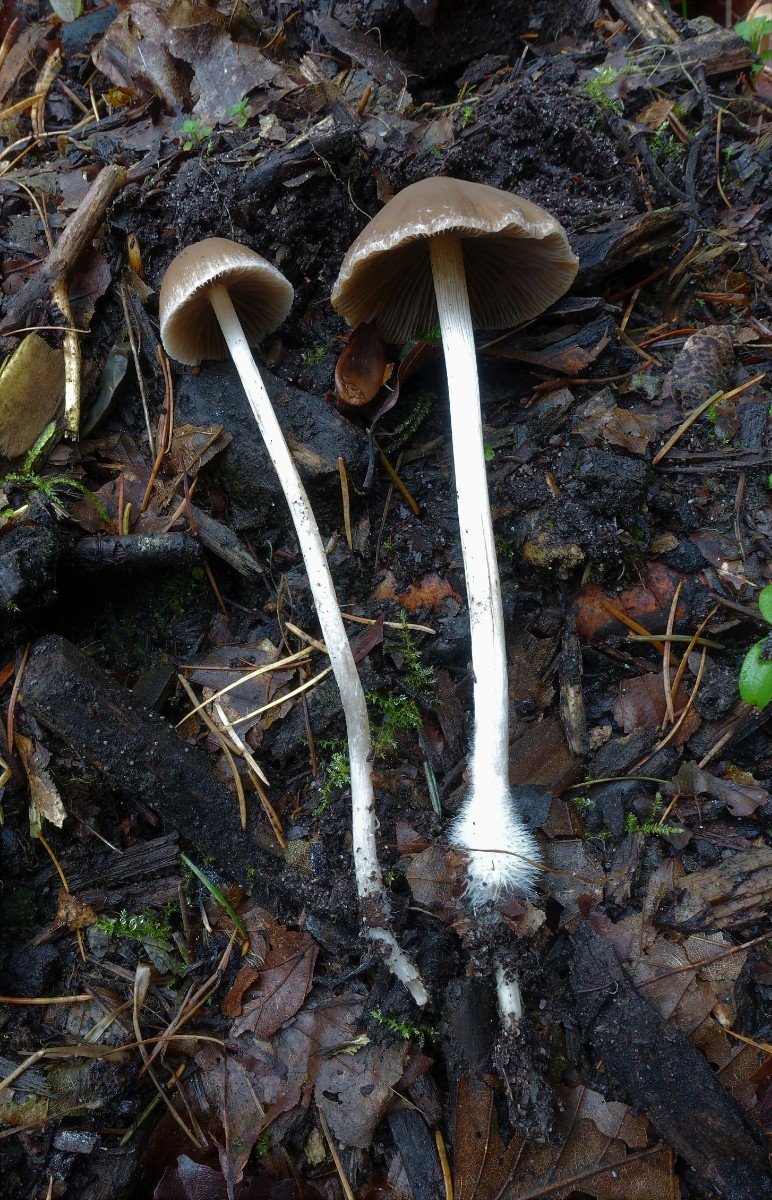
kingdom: Fungi
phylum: Basidiomycota
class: Agaricomycetes
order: Agaricales
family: Psathyrellaceae
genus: Psathyrella
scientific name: Psathyrella microrhiza
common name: rod-mørkhat
